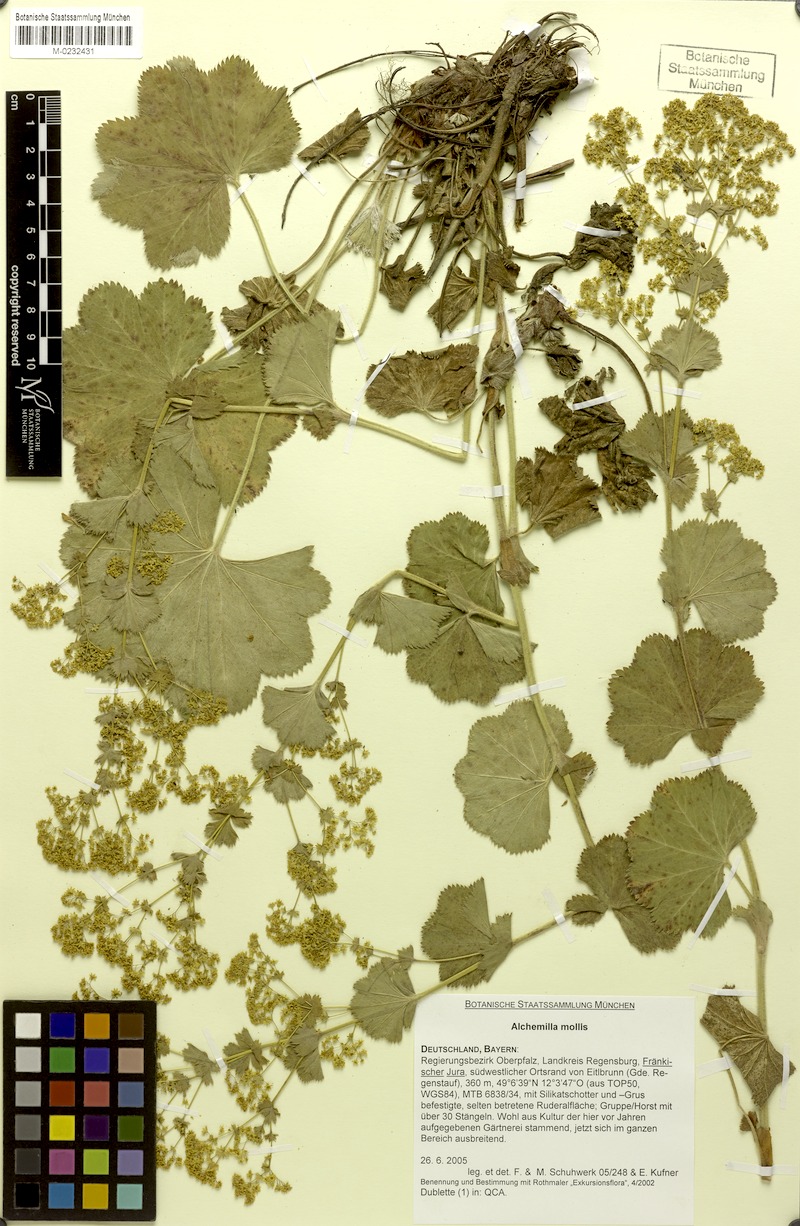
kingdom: Plantae
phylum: Tracheophyta
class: Magnoliopsida
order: Rosales
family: Rosaceae
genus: Alchemilla
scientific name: Alchemilla mollis
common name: Lady's-mantle
